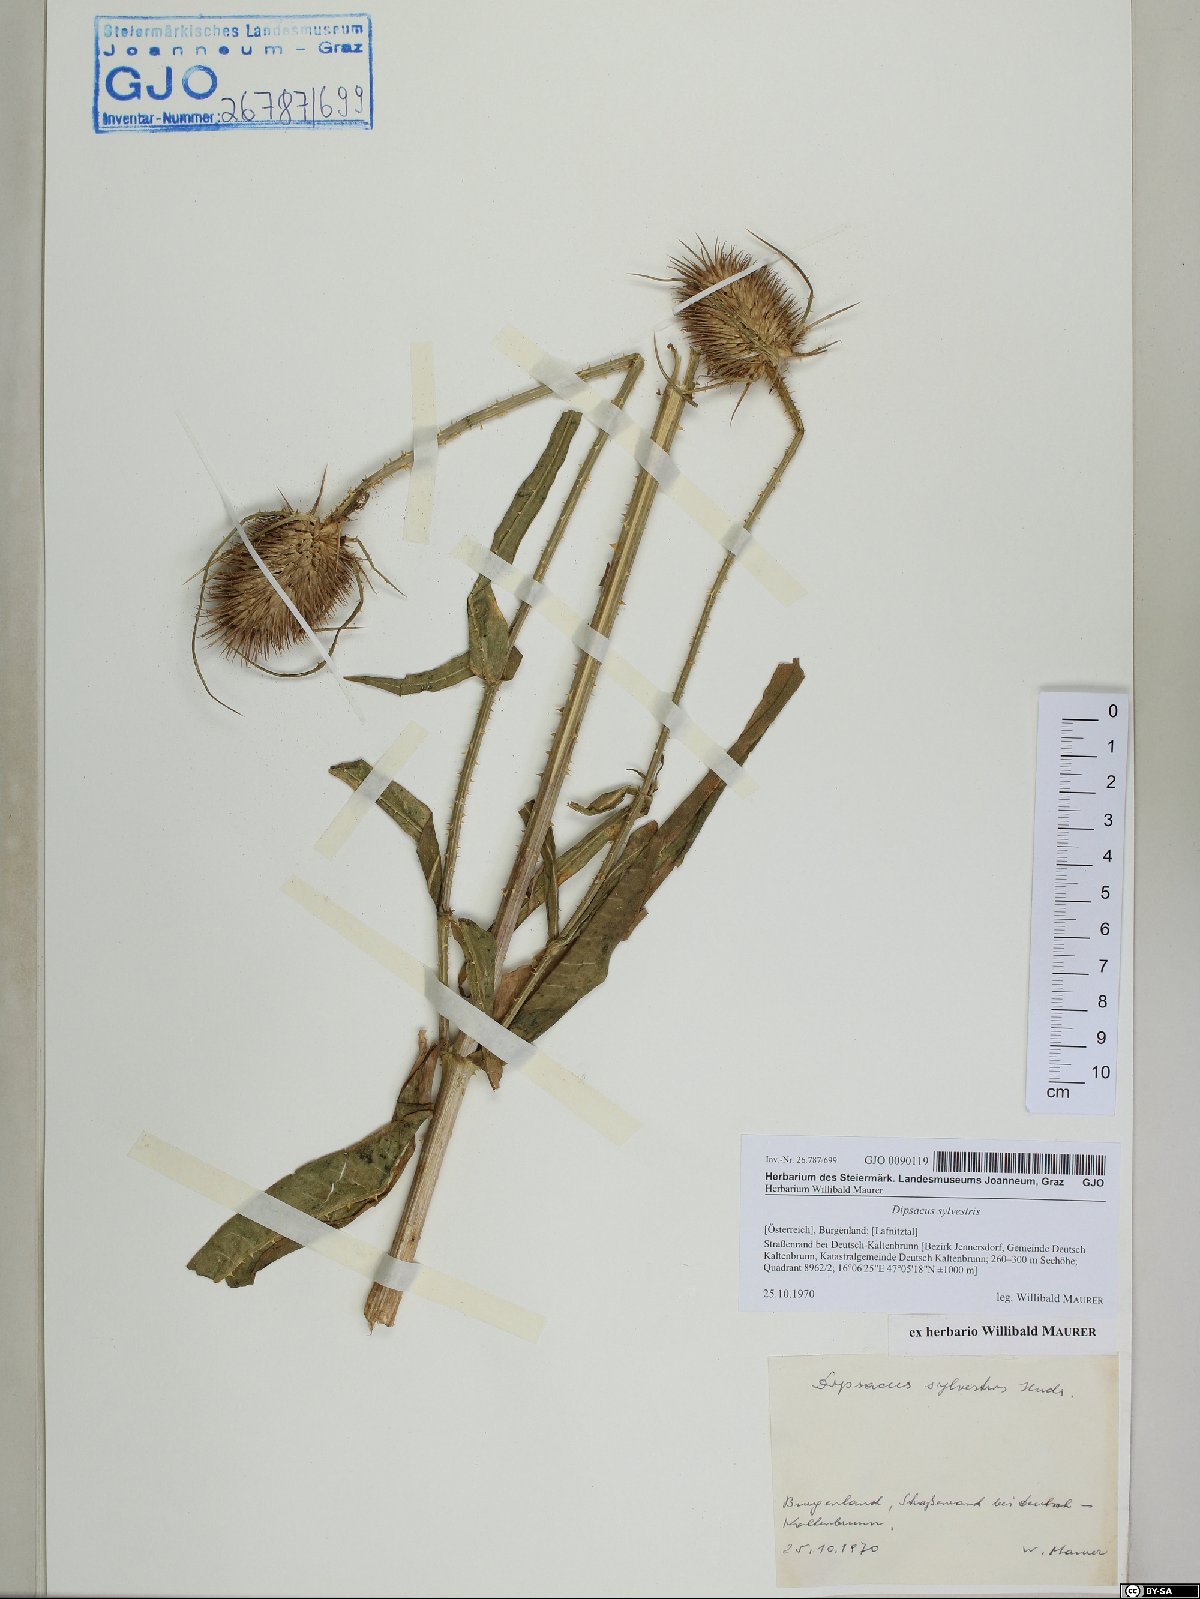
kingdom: Plantae
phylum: Tracheophyta
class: Magnoliopsida
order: Dipsacales
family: Caprifoliaceae
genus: Dipsacus
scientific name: Dipsacus fullonum
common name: Teasel
